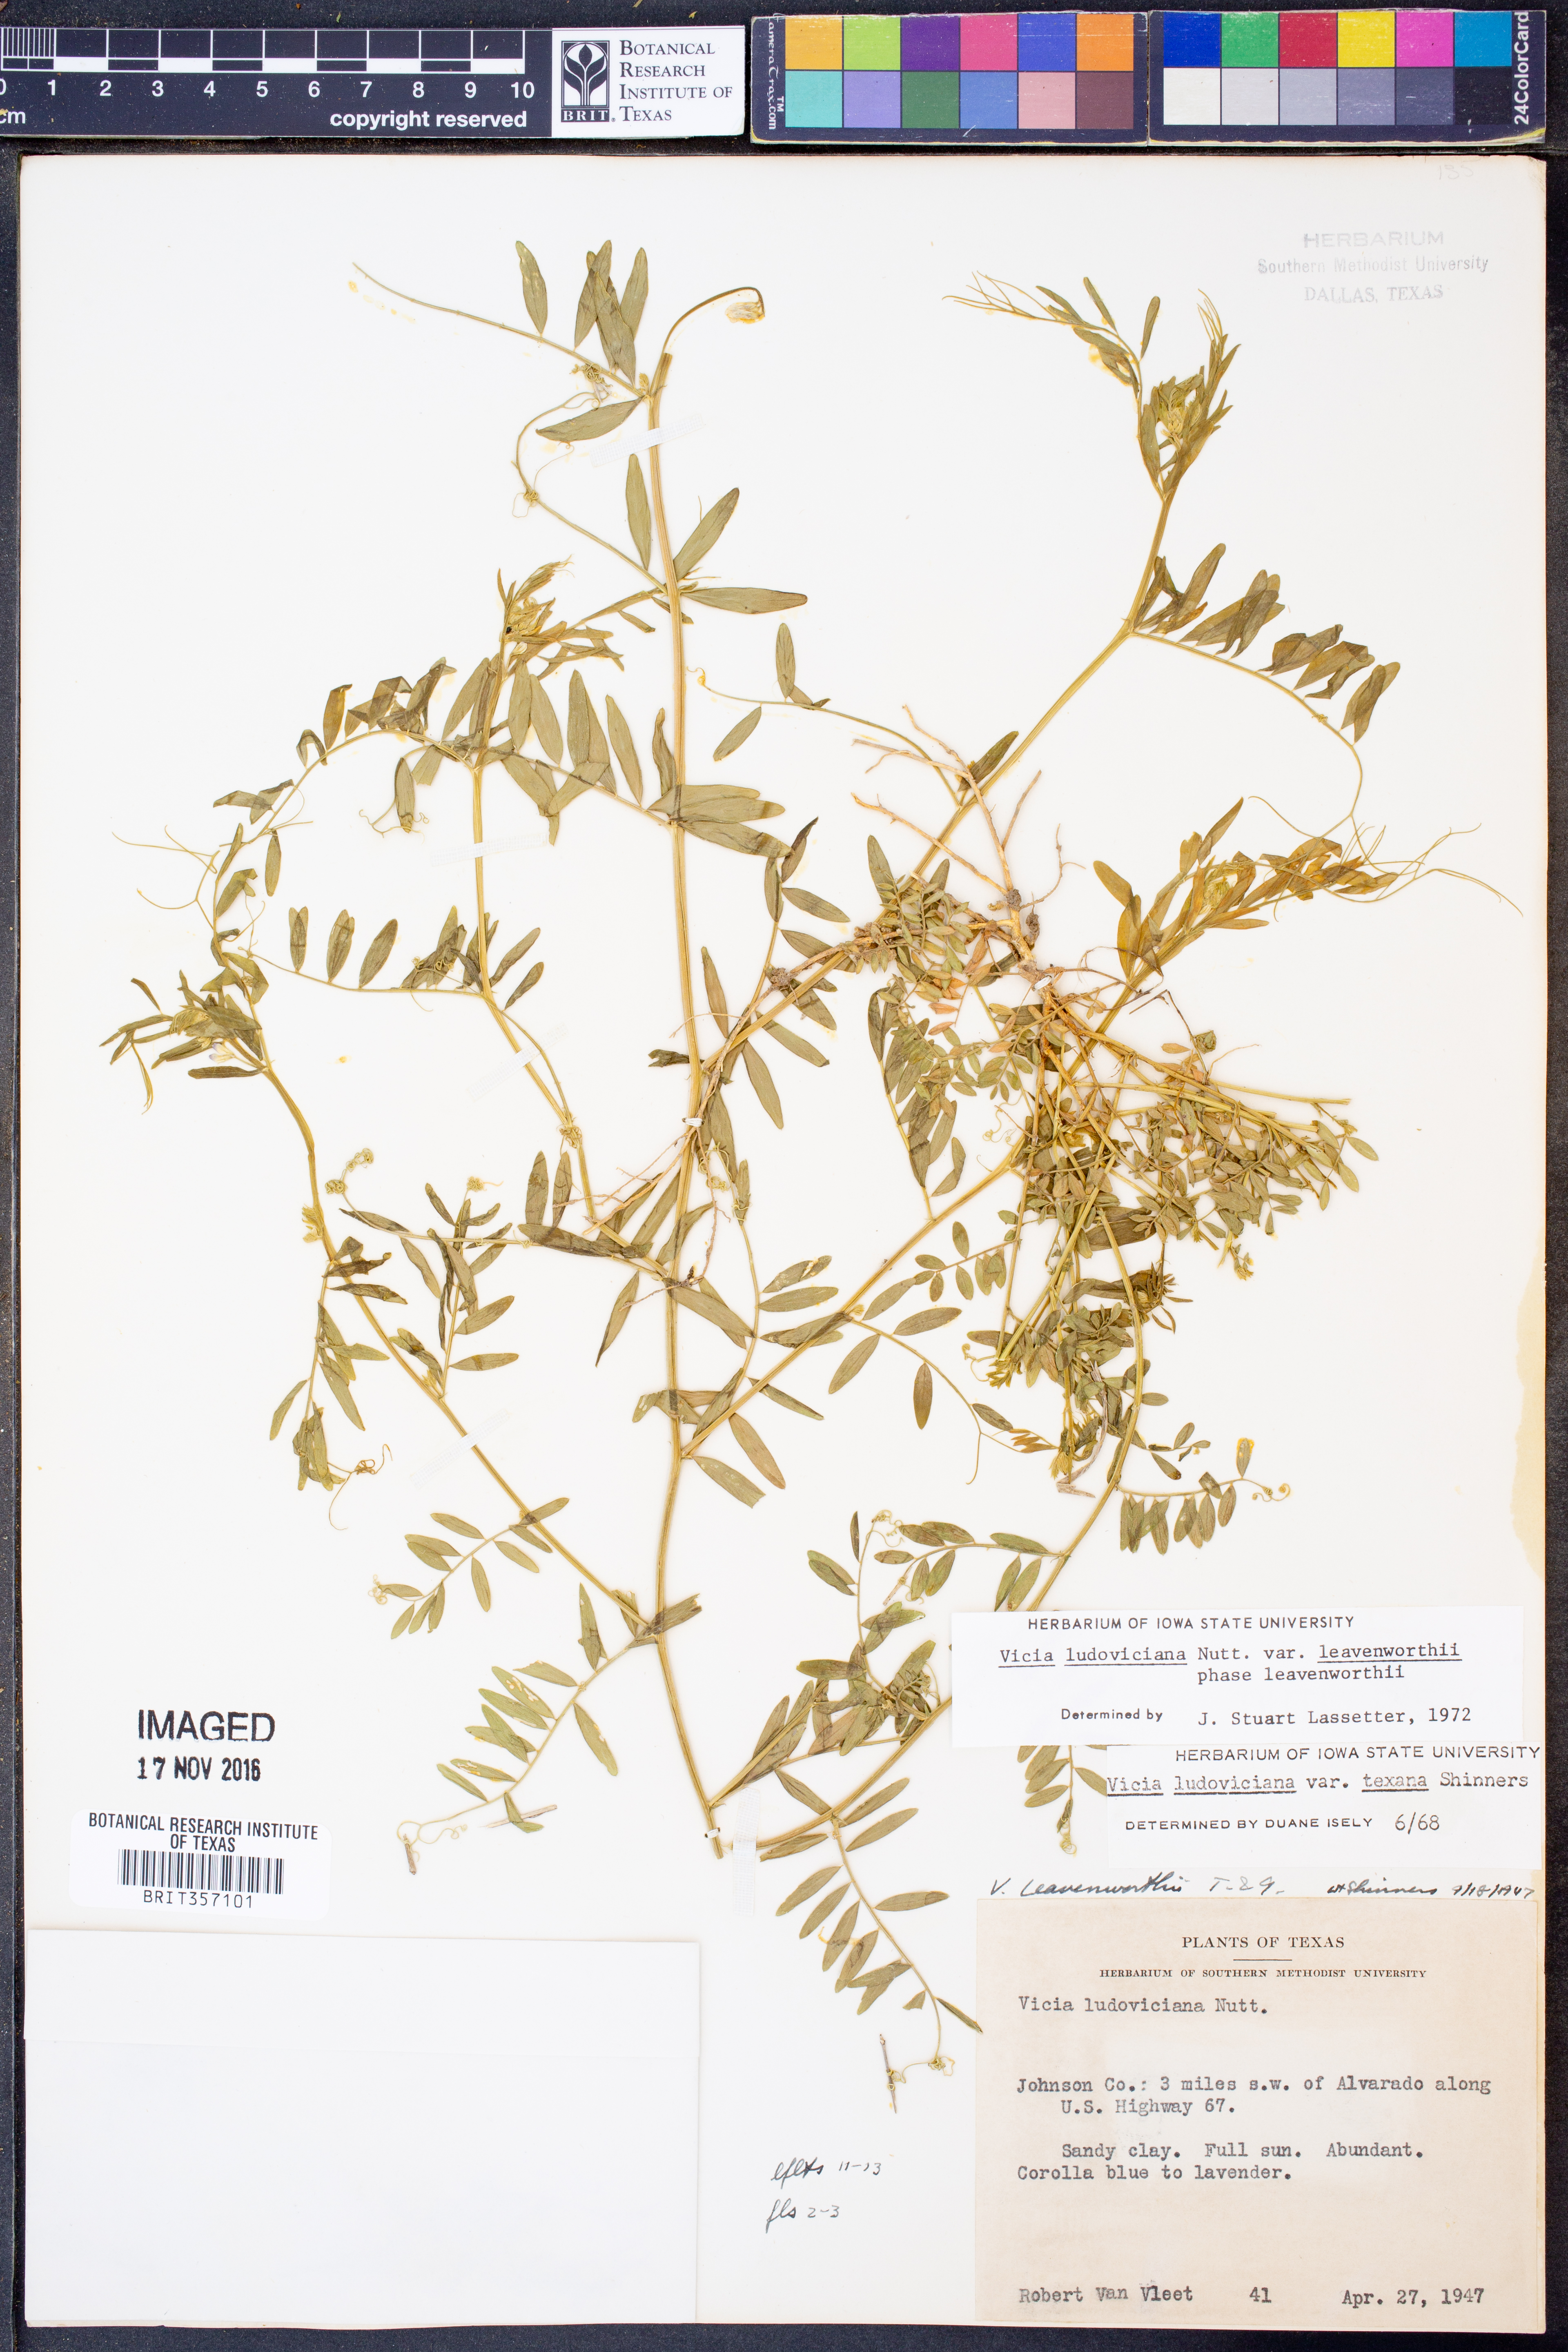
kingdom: Plantae
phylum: Tracheophyta
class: Magnoliopsida
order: Fabales
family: Fabaceae
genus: Vicia
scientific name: Vicia ludoviciana
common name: Louisiana vetch
